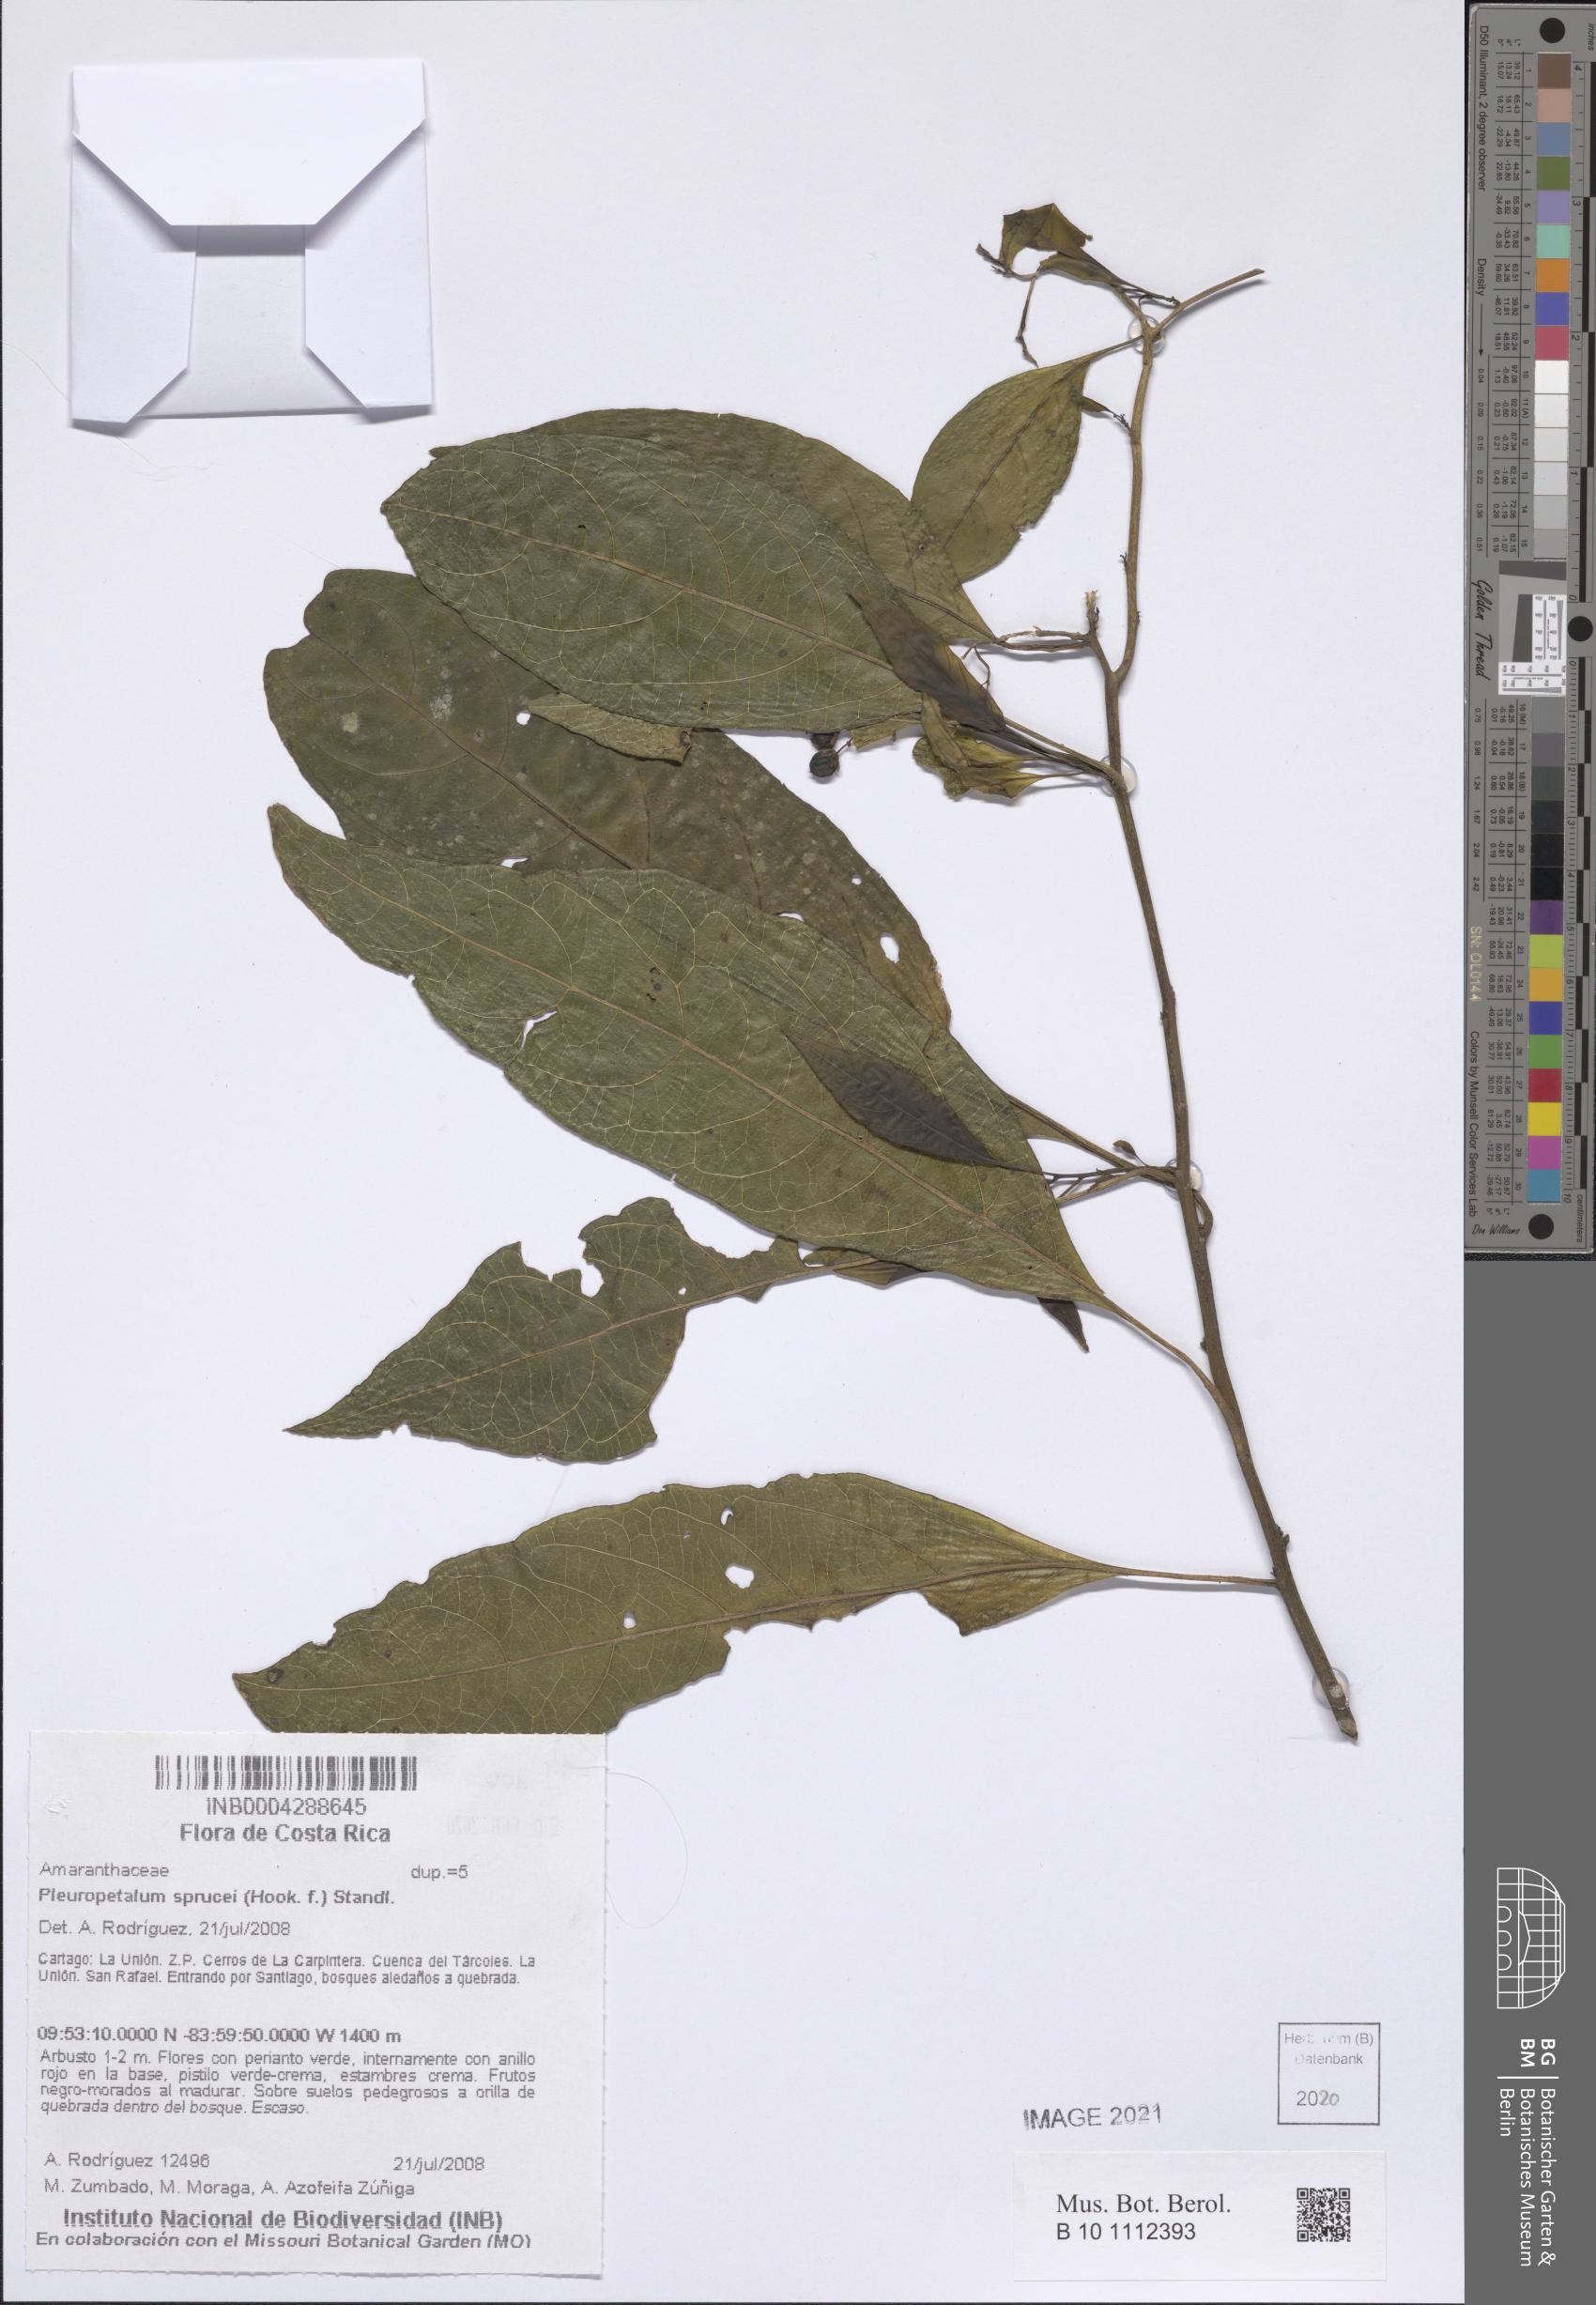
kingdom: Plantae
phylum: Tracheophyta
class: Magnoliopsida
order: Caryophyllales
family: Amaranthaceae
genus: Pleuropetalum
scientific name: Pleuropetalum sprucei
